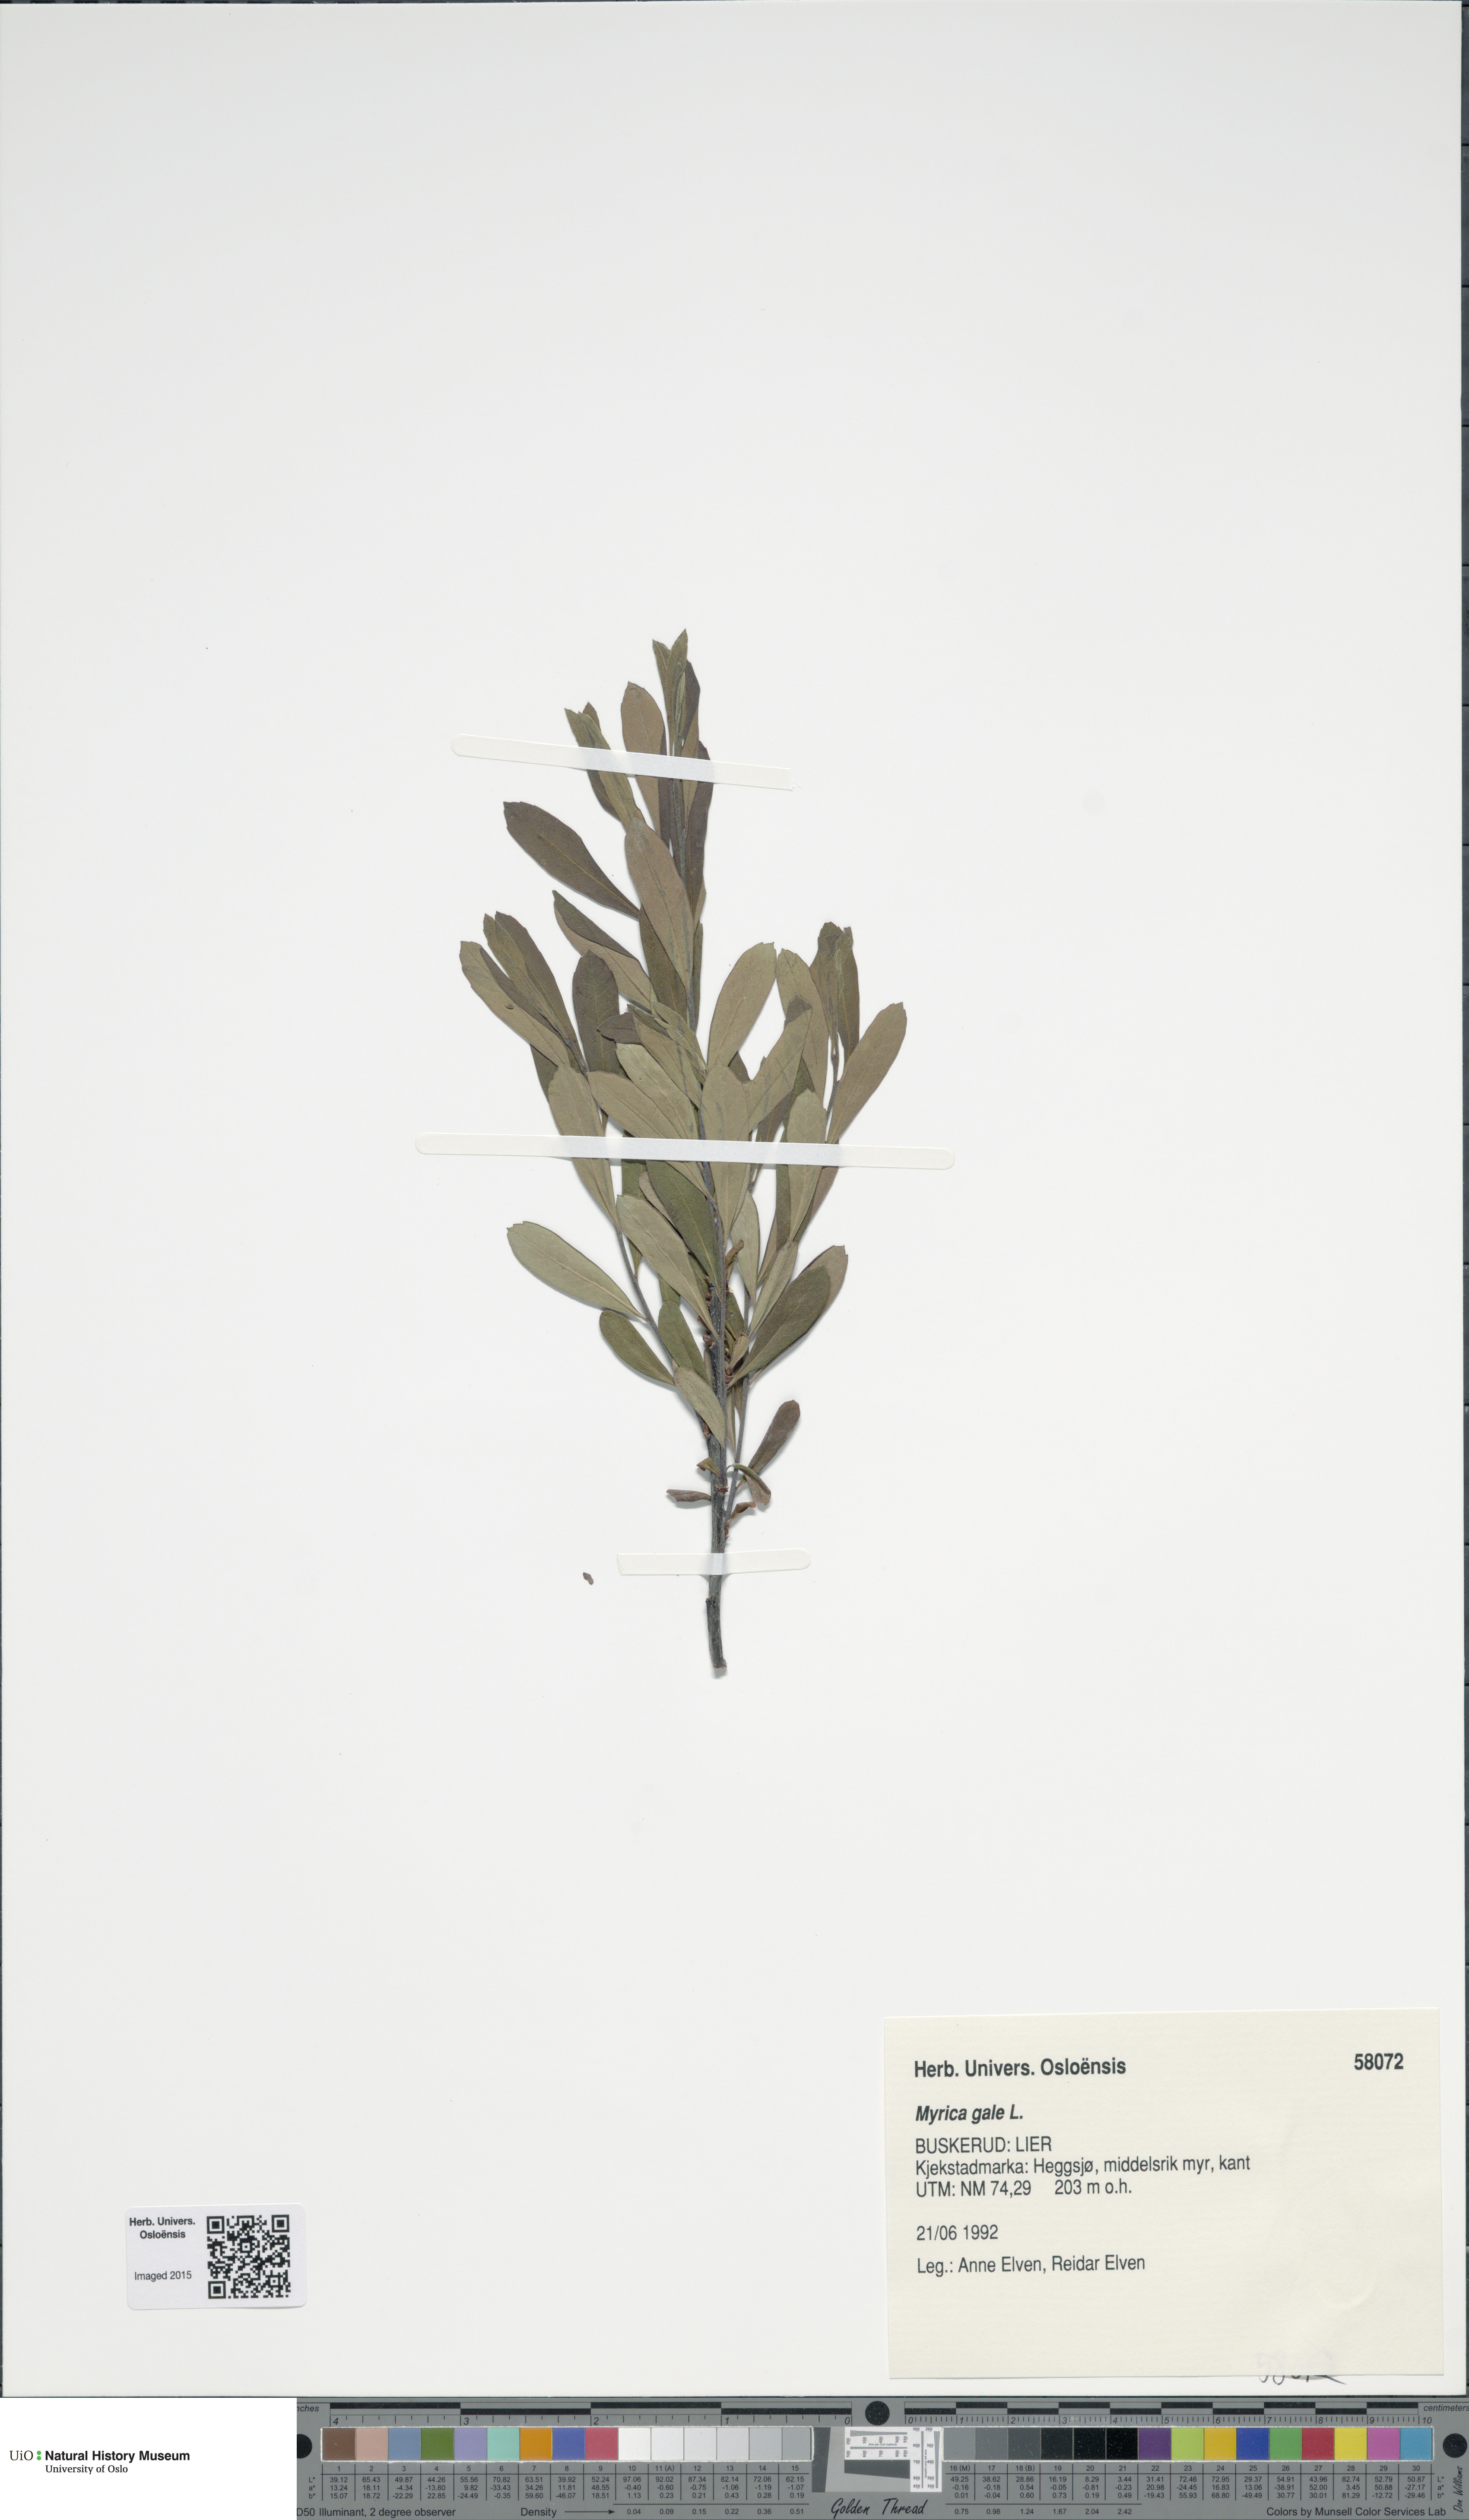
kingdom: Plantae
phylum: Tracheophyta
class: Magnoliopsida
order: Fagales
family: Myricaceae
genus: Myrica
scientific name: Myrica gale
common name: Sweet gale
